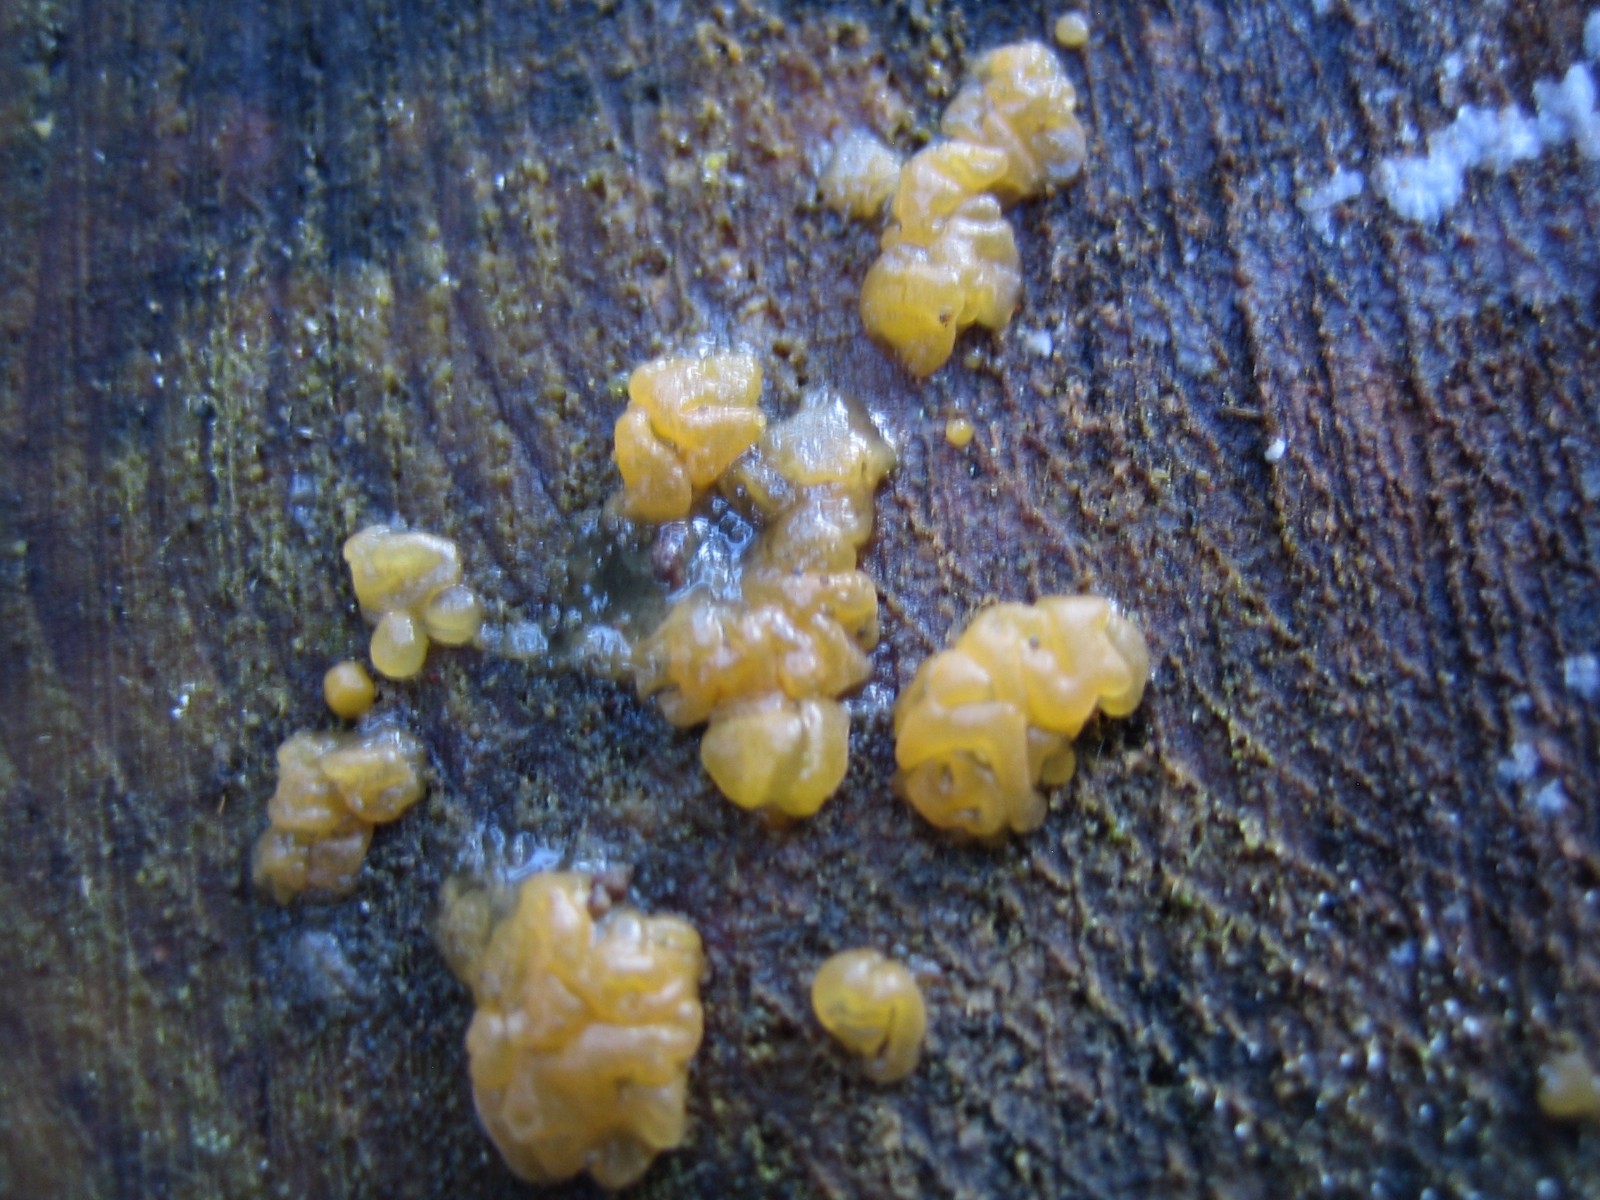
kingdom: Fungi
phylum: Basidiomycota
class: Dacrymycetes
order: Dacrymycetales
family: Dacrymycetaceae
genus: Dacrymyces
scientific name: Dacrymyces
